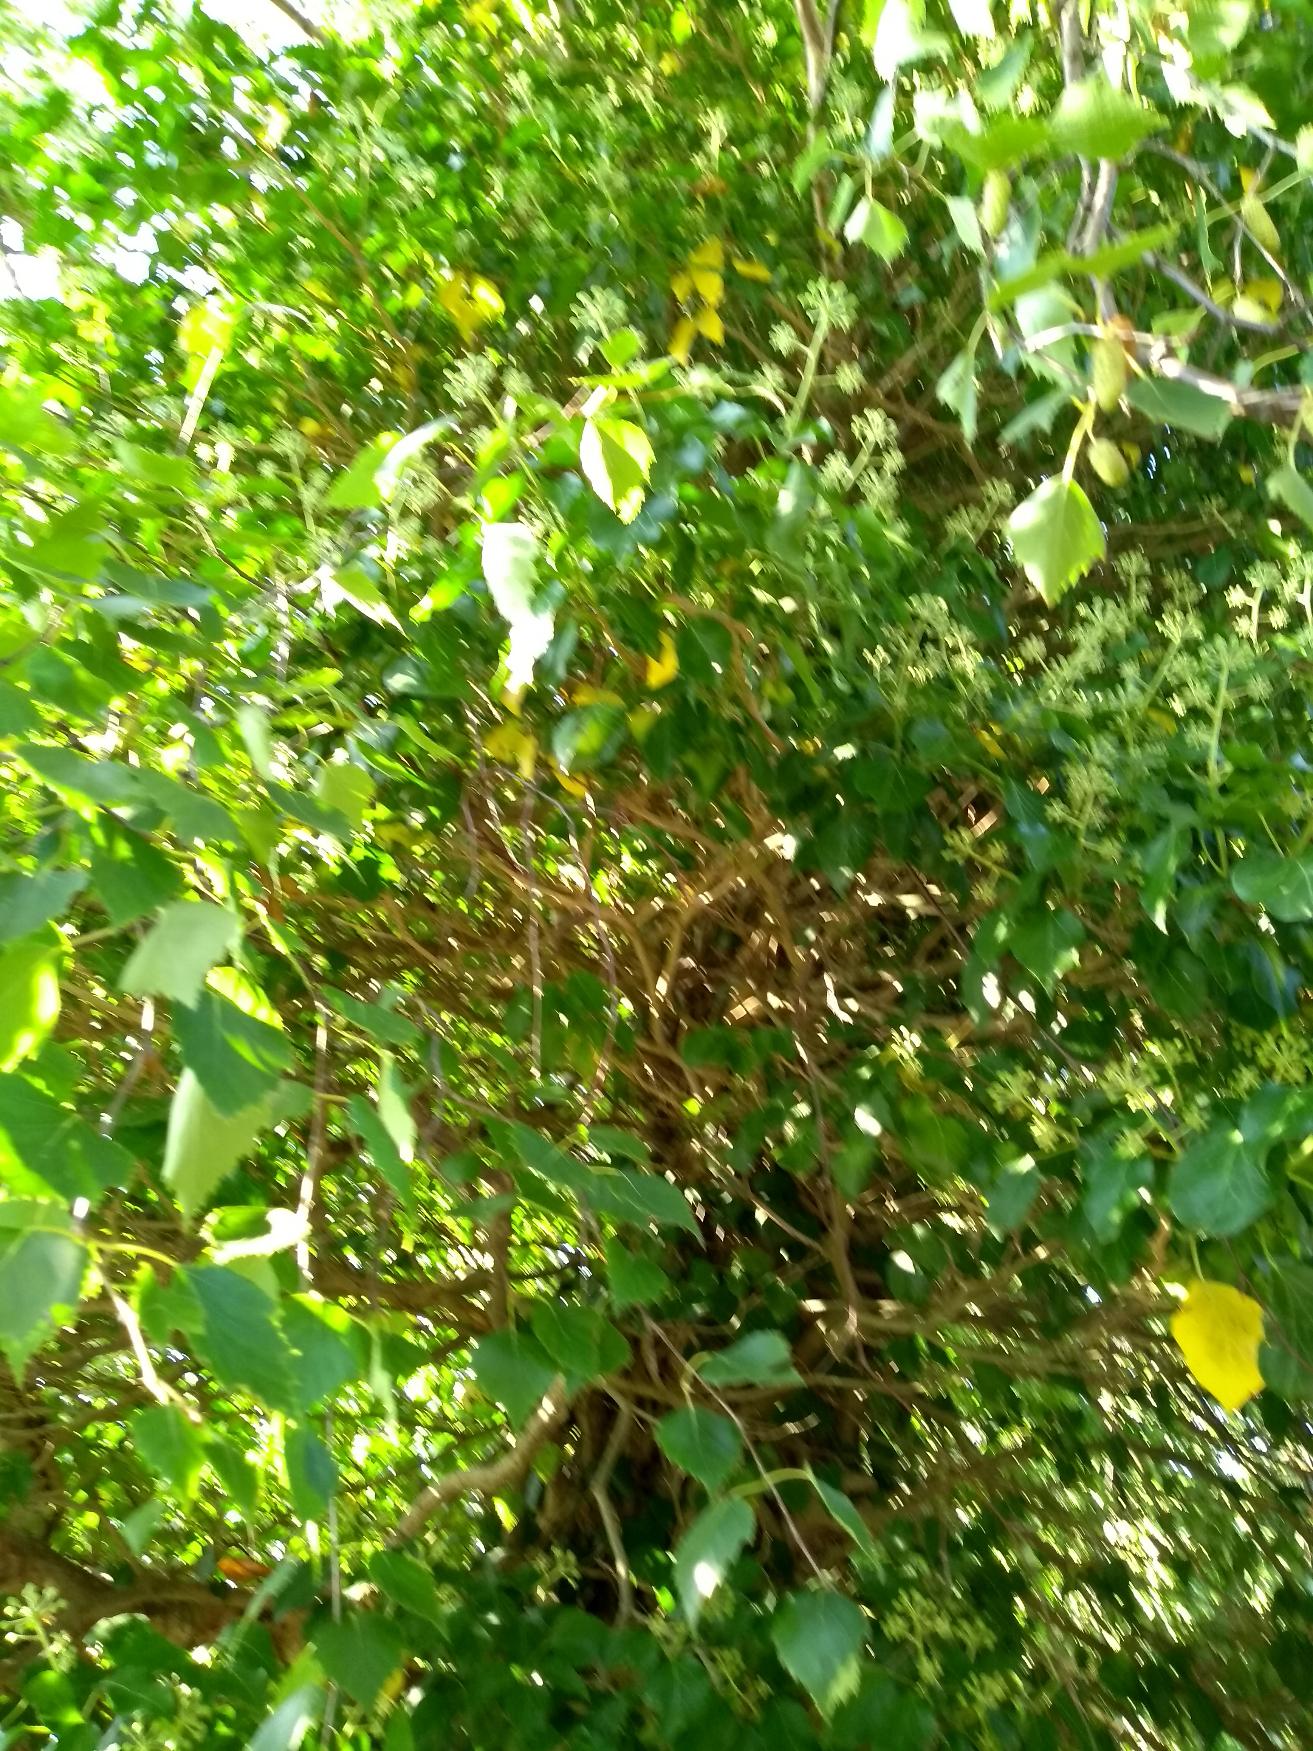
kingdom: Plantae
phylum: Tracheophyta
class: Magnoliopsida
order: Apiales
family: Araliaceae
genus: Hedera
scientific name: Hedera
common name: Vedbendslægten
